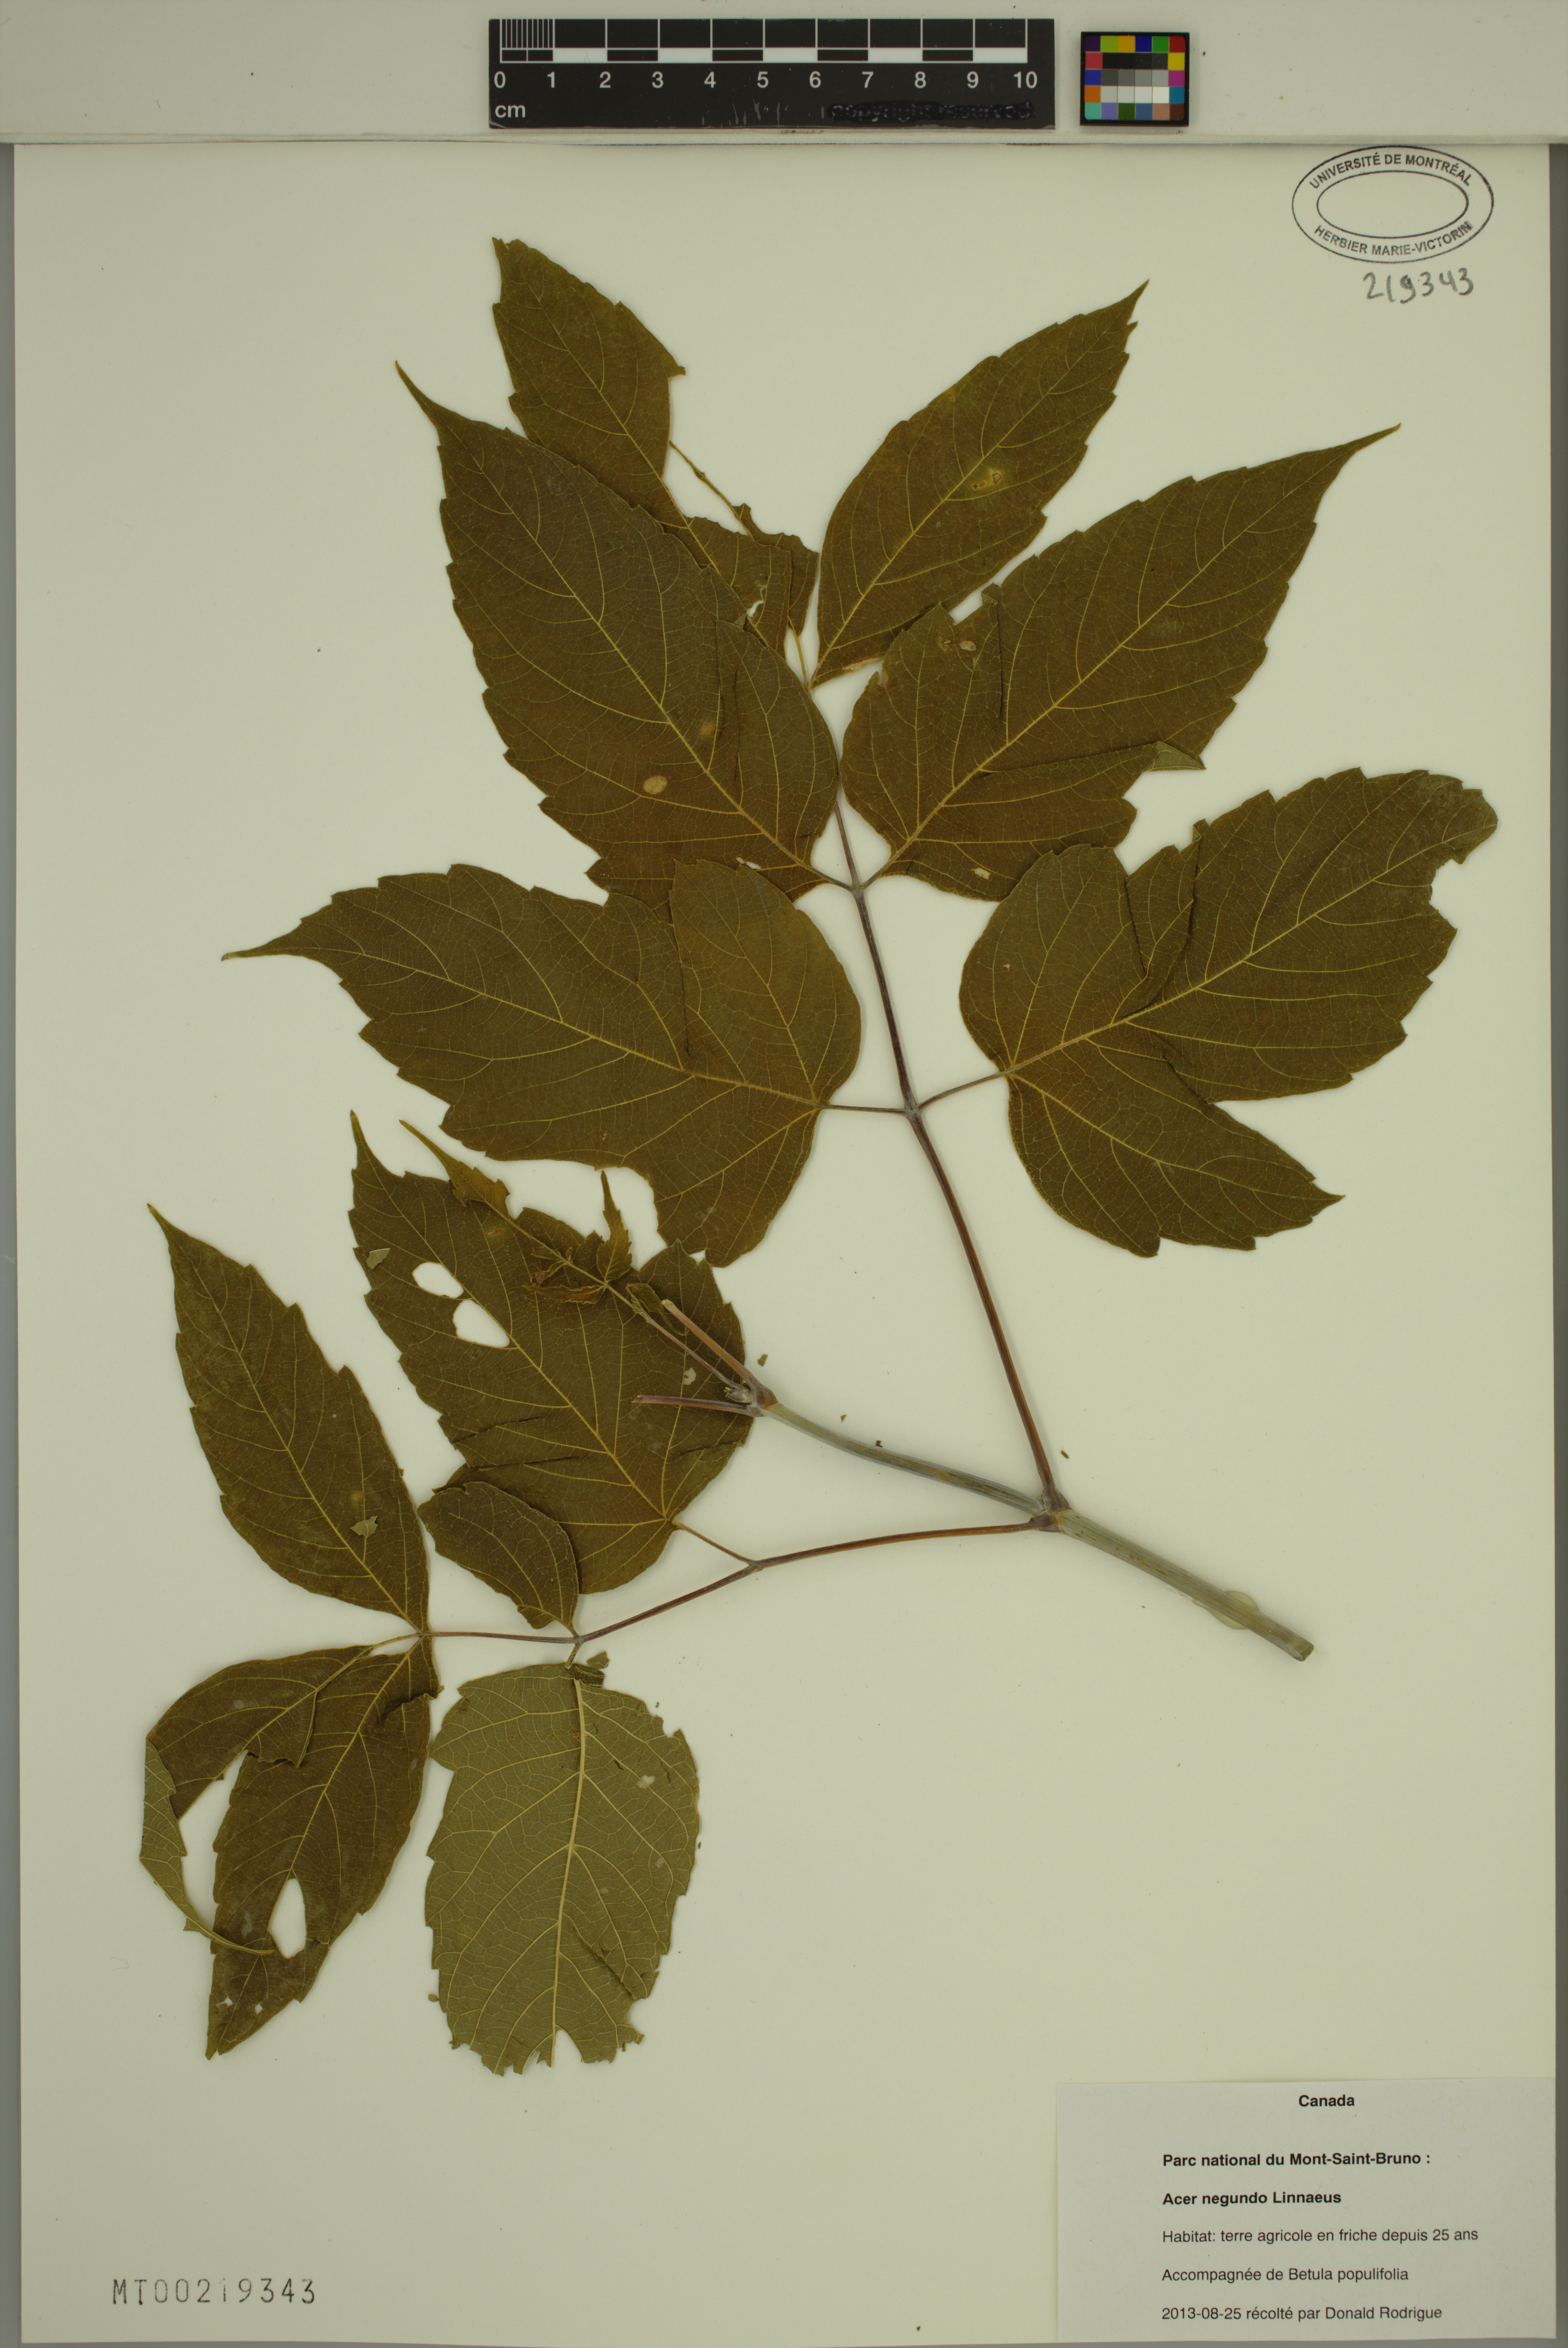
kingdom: Plantae
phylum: Tracheophyta
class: Magnoliopsida
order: Sapindales
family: Sapindaceae
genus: Acer
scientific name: Acer negundo
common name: Ashleaf maple
